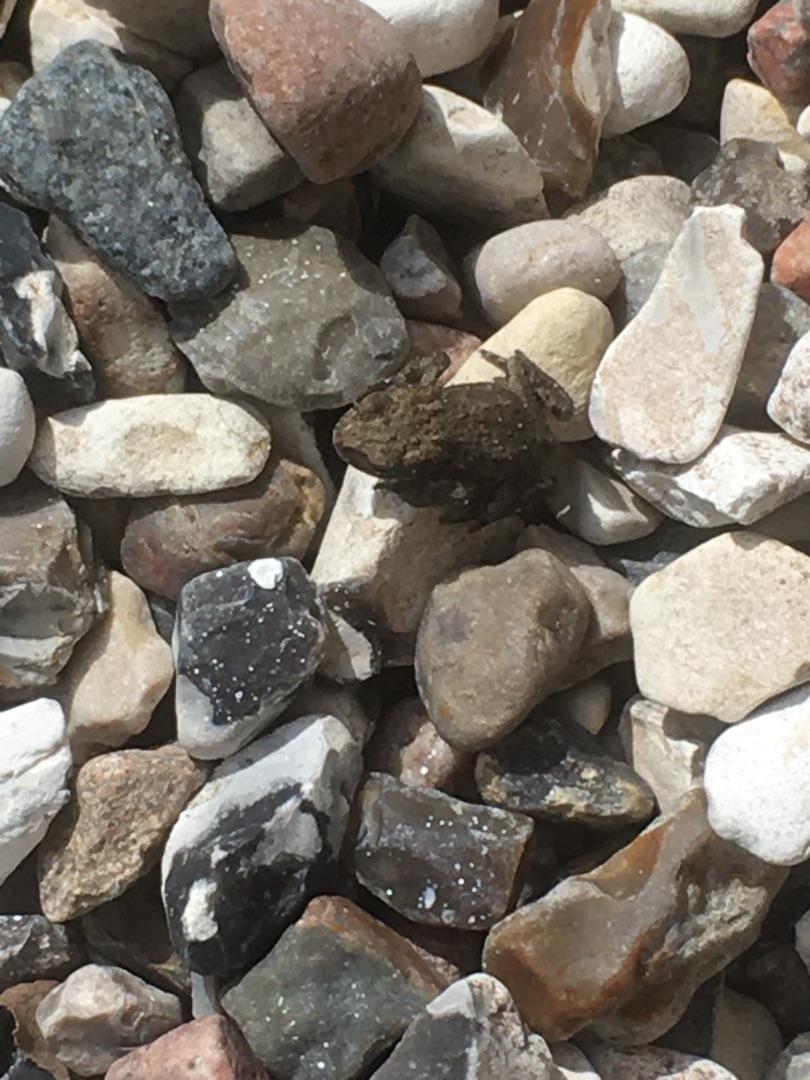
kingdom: Animalia
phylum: Chordata
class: Amphibia
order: Anura
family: Bufonidae
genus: Bufo
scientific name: Bufo bufo
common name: Skrubtudse
